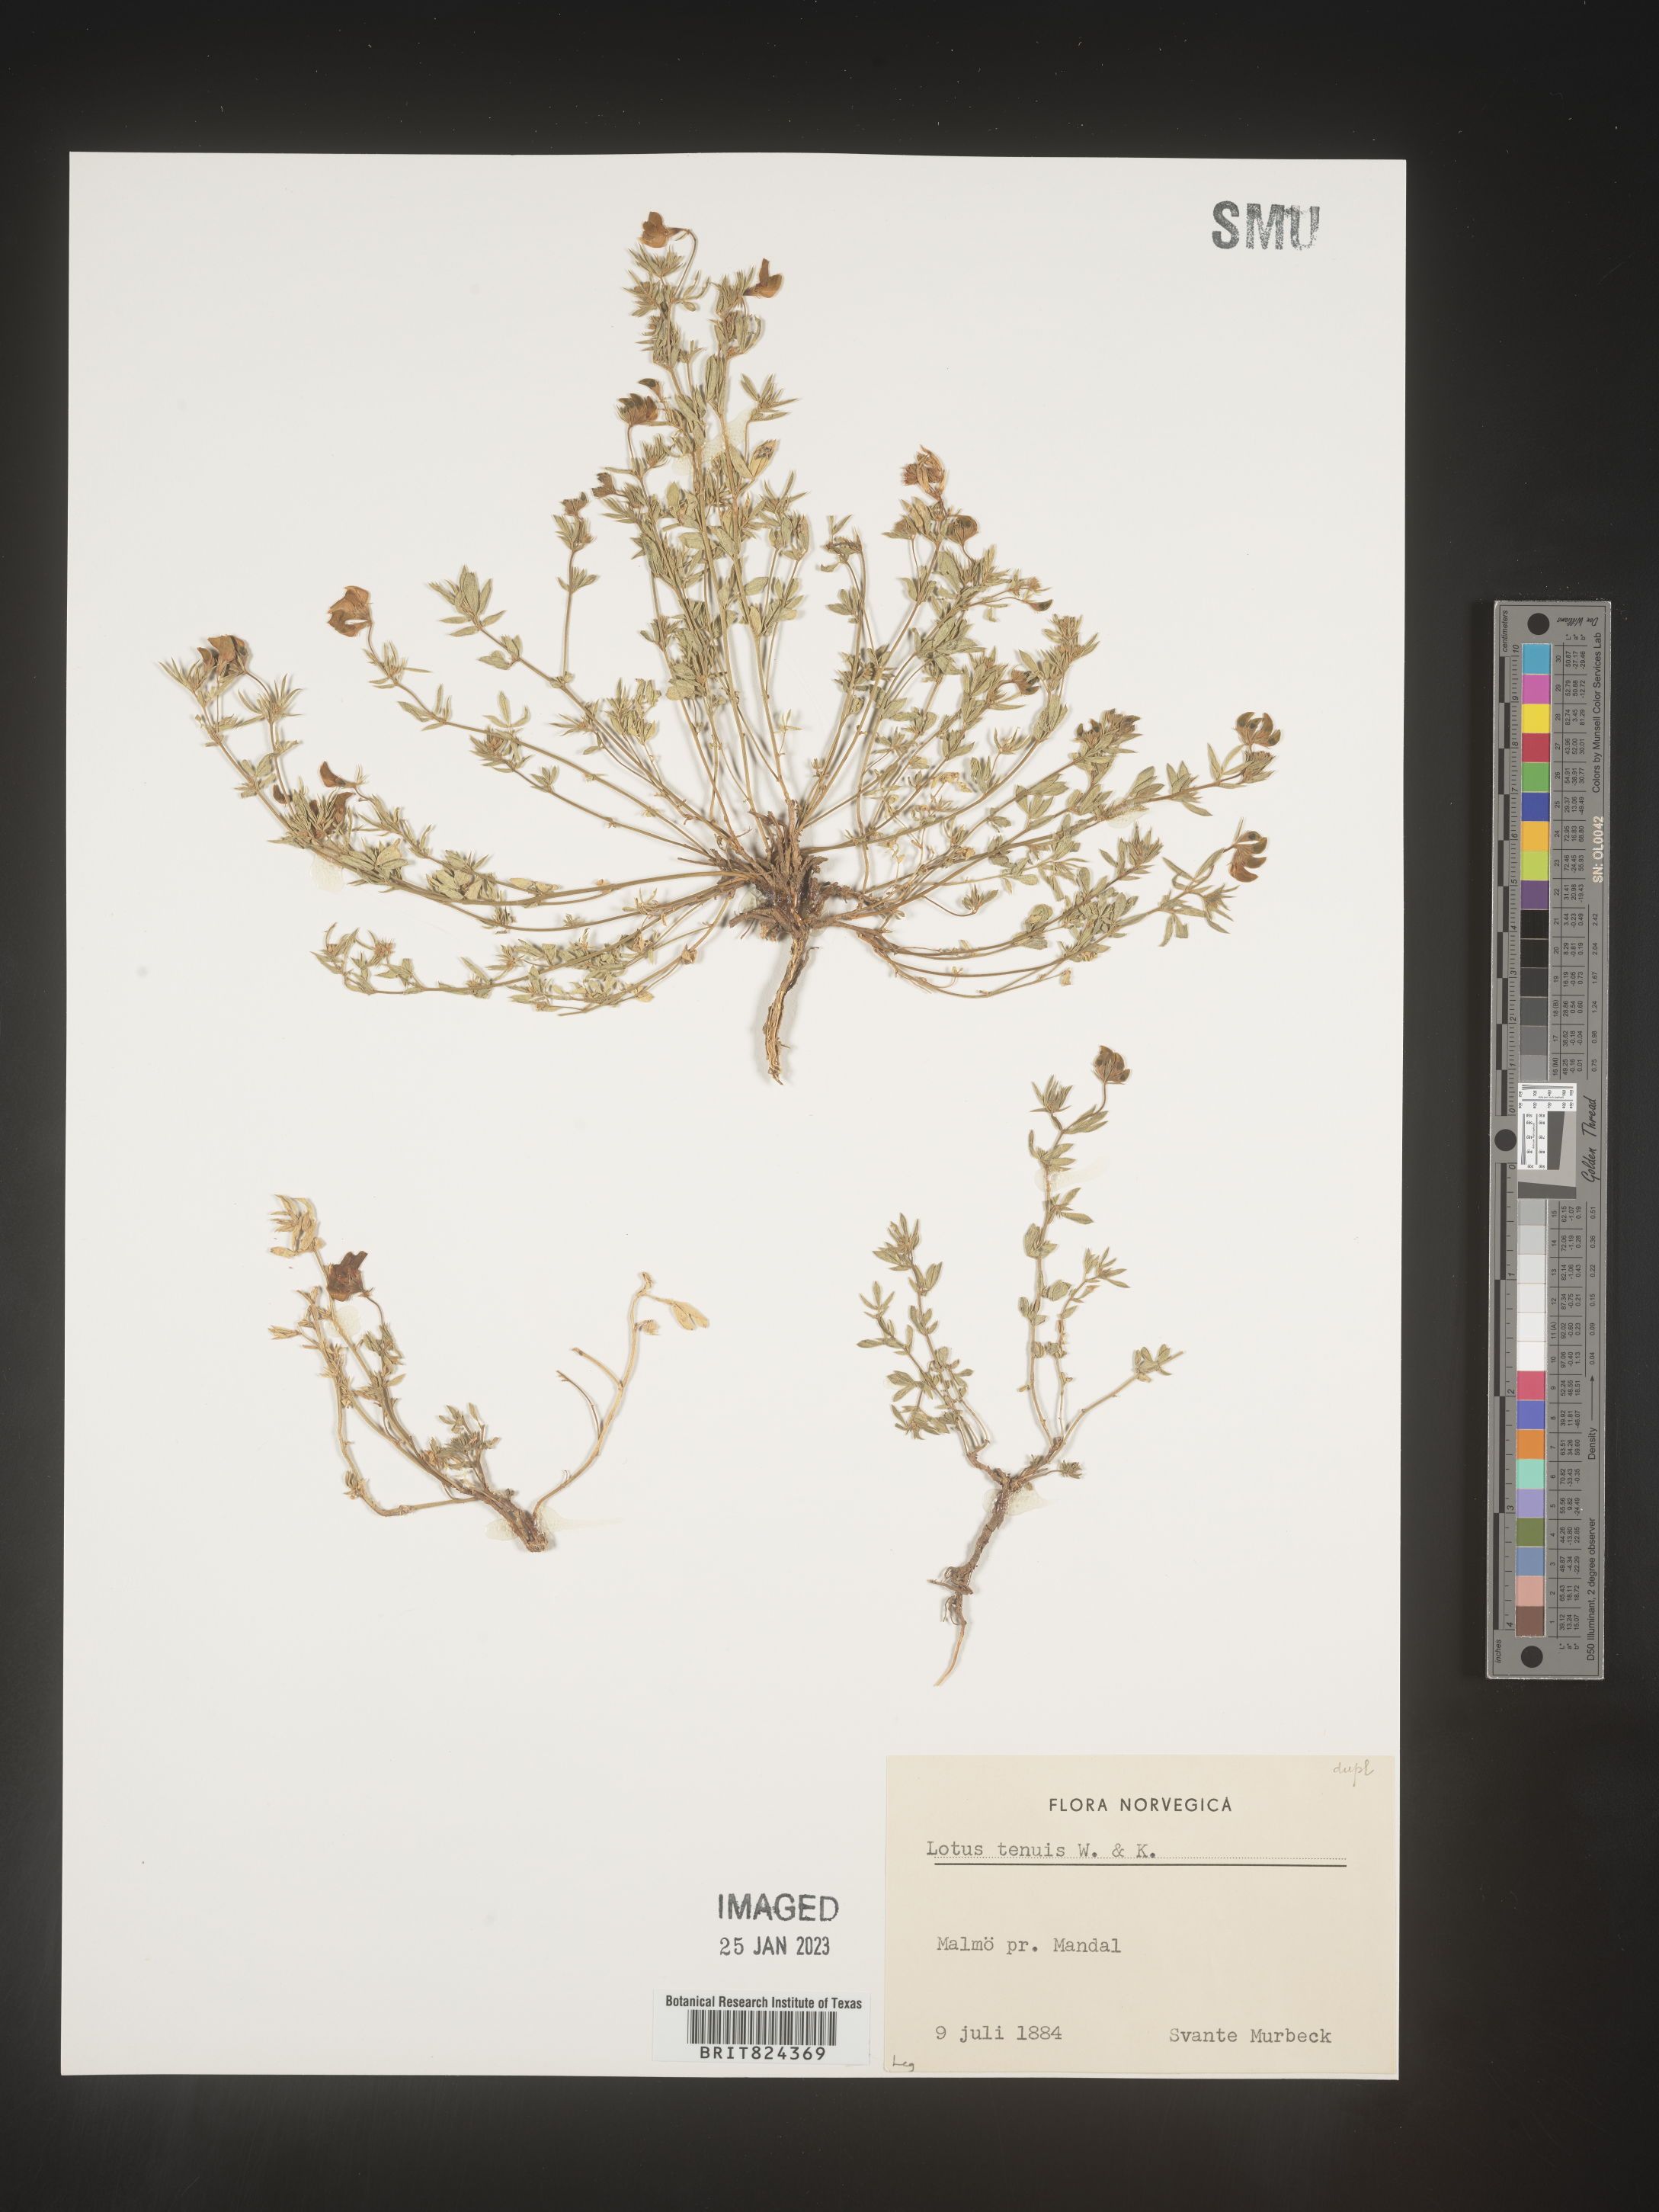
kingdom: Plantae
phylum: Tracheophyta
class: Magnoliopsida
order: Fabales
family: Fabaceae
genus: Lotus
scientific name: Lotus
